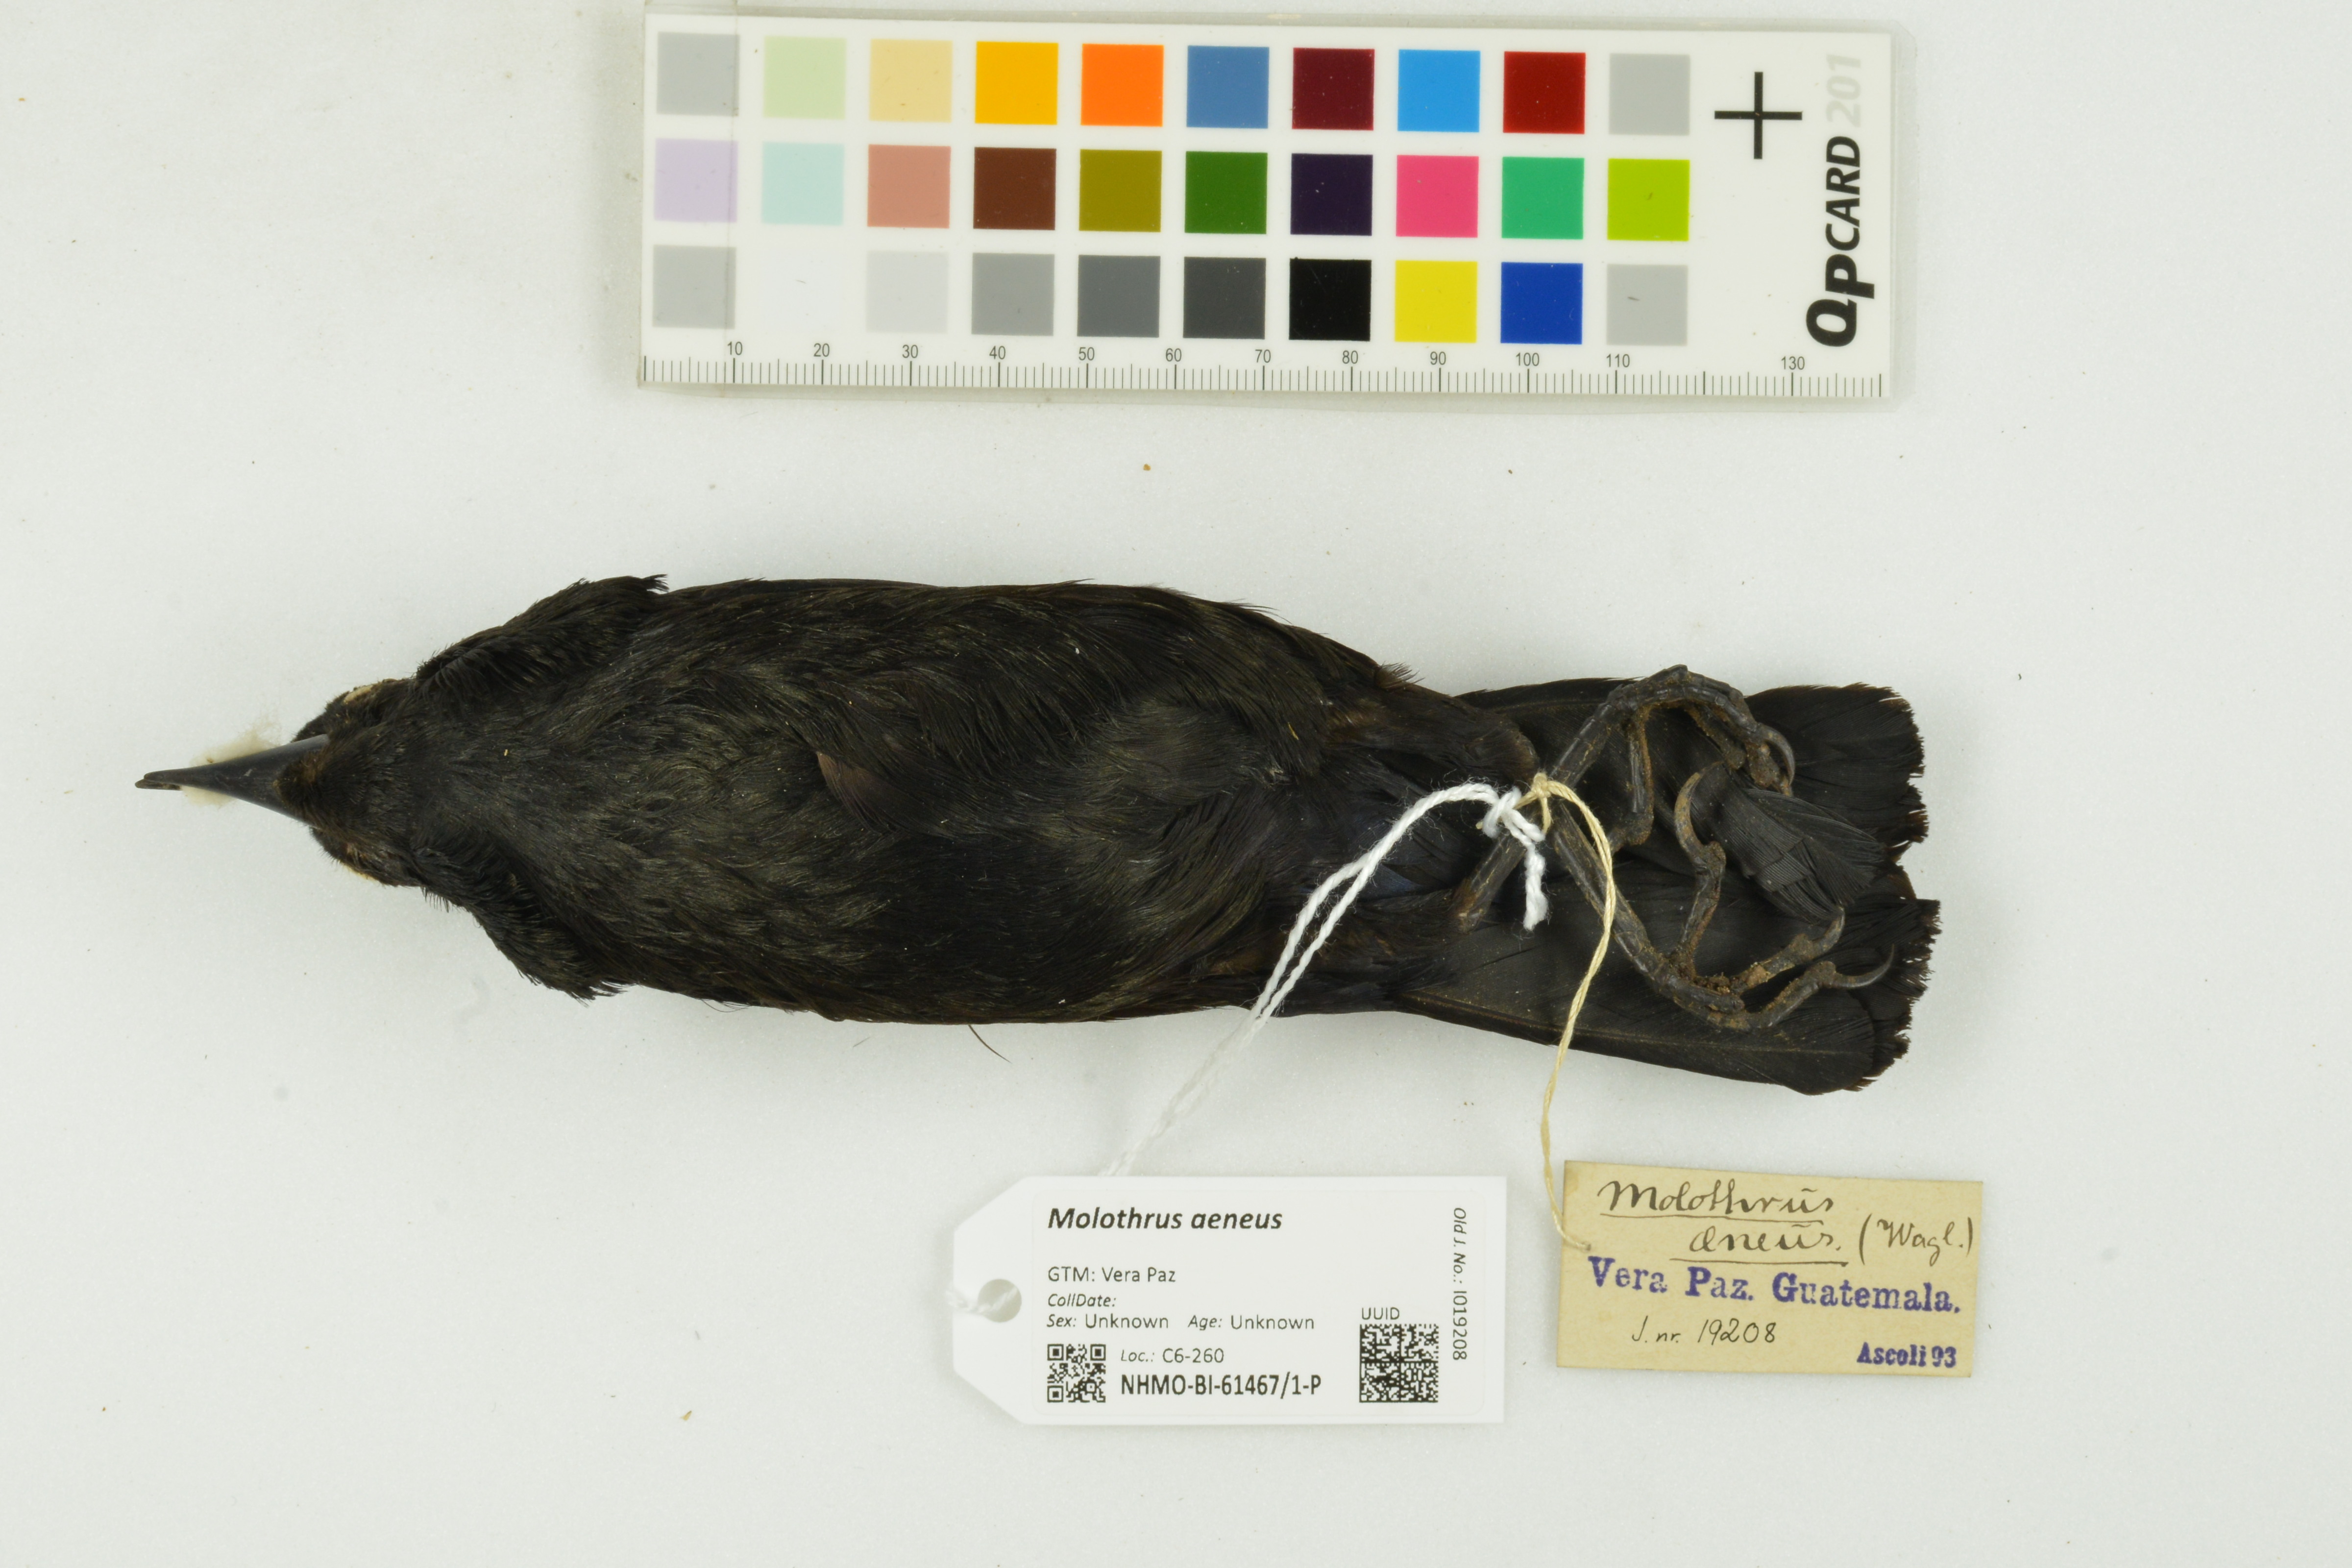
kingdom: Animalia
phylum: Chordata
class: Aves
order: Passeriformes
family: Icteridae
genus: Molothrus
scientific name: Molothrus aeneus
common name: Bronzed cowbird
